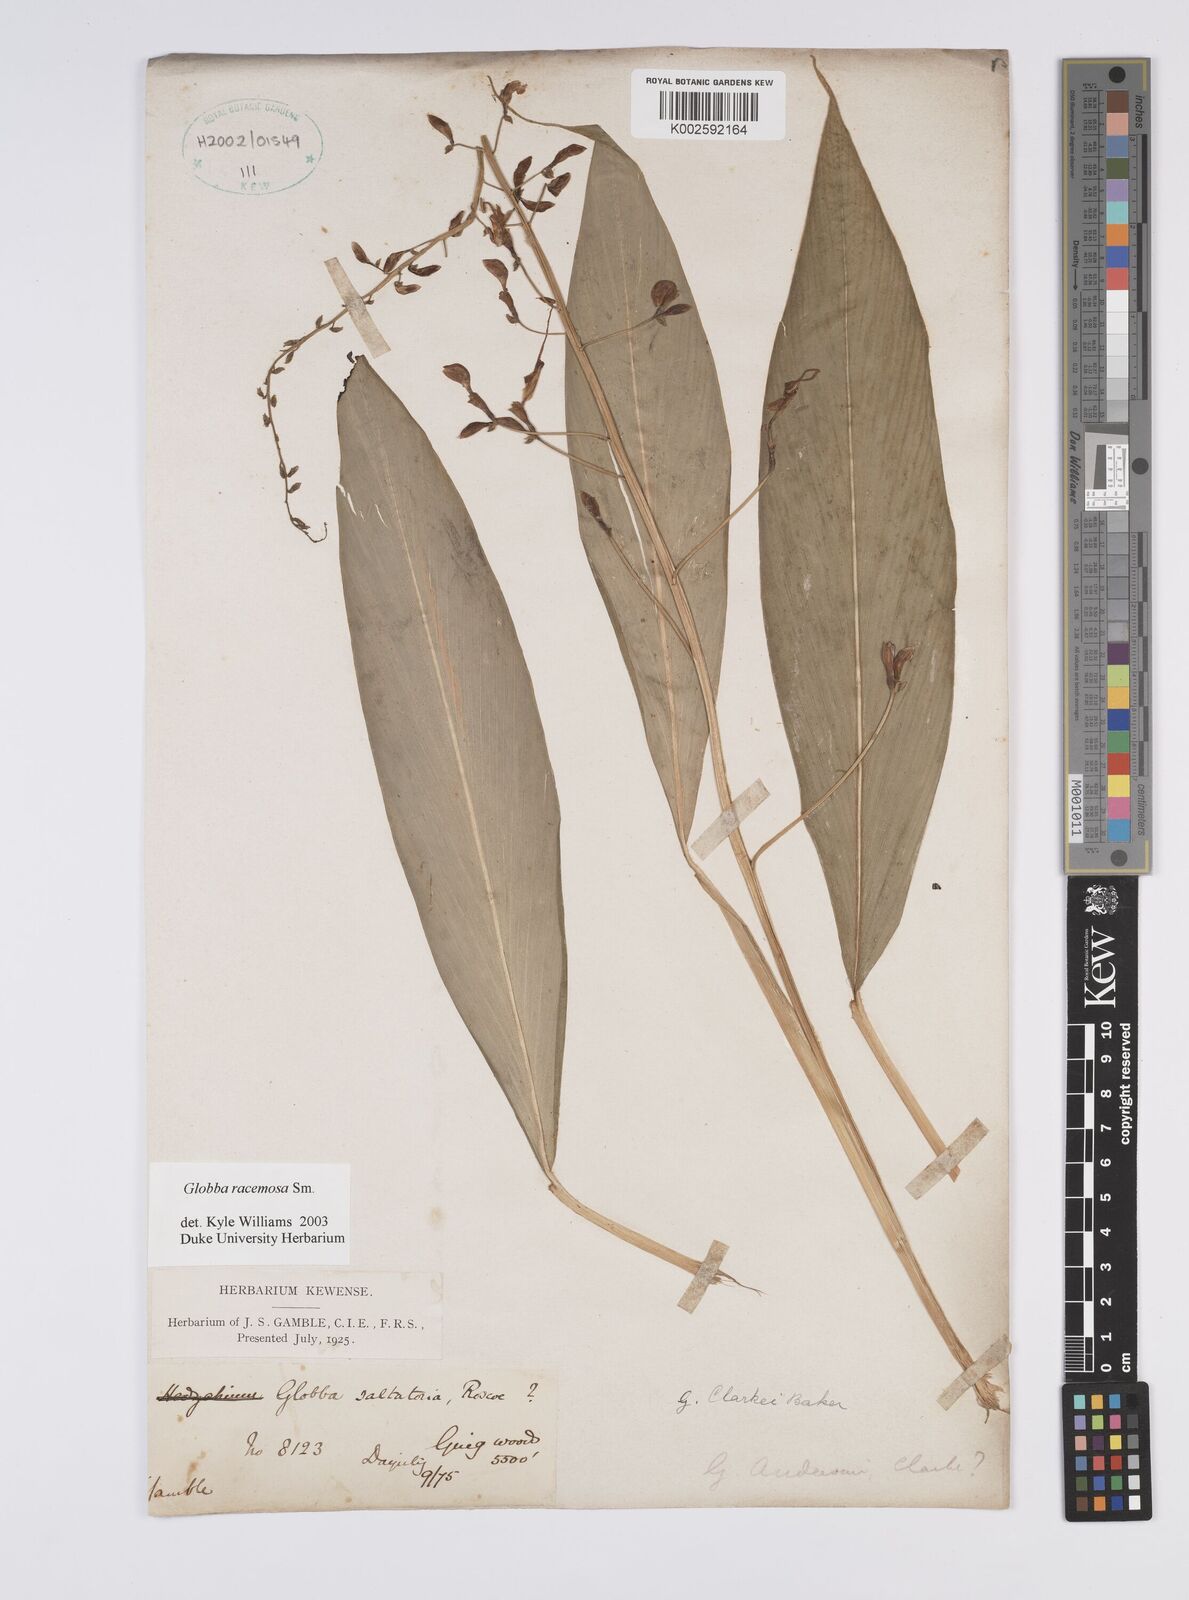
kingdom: Plantae
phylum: Tracheophyta
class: Liliopsida
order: Zingiberales
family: Zingiberaceae
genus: Globba
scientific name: Globba racemosa
